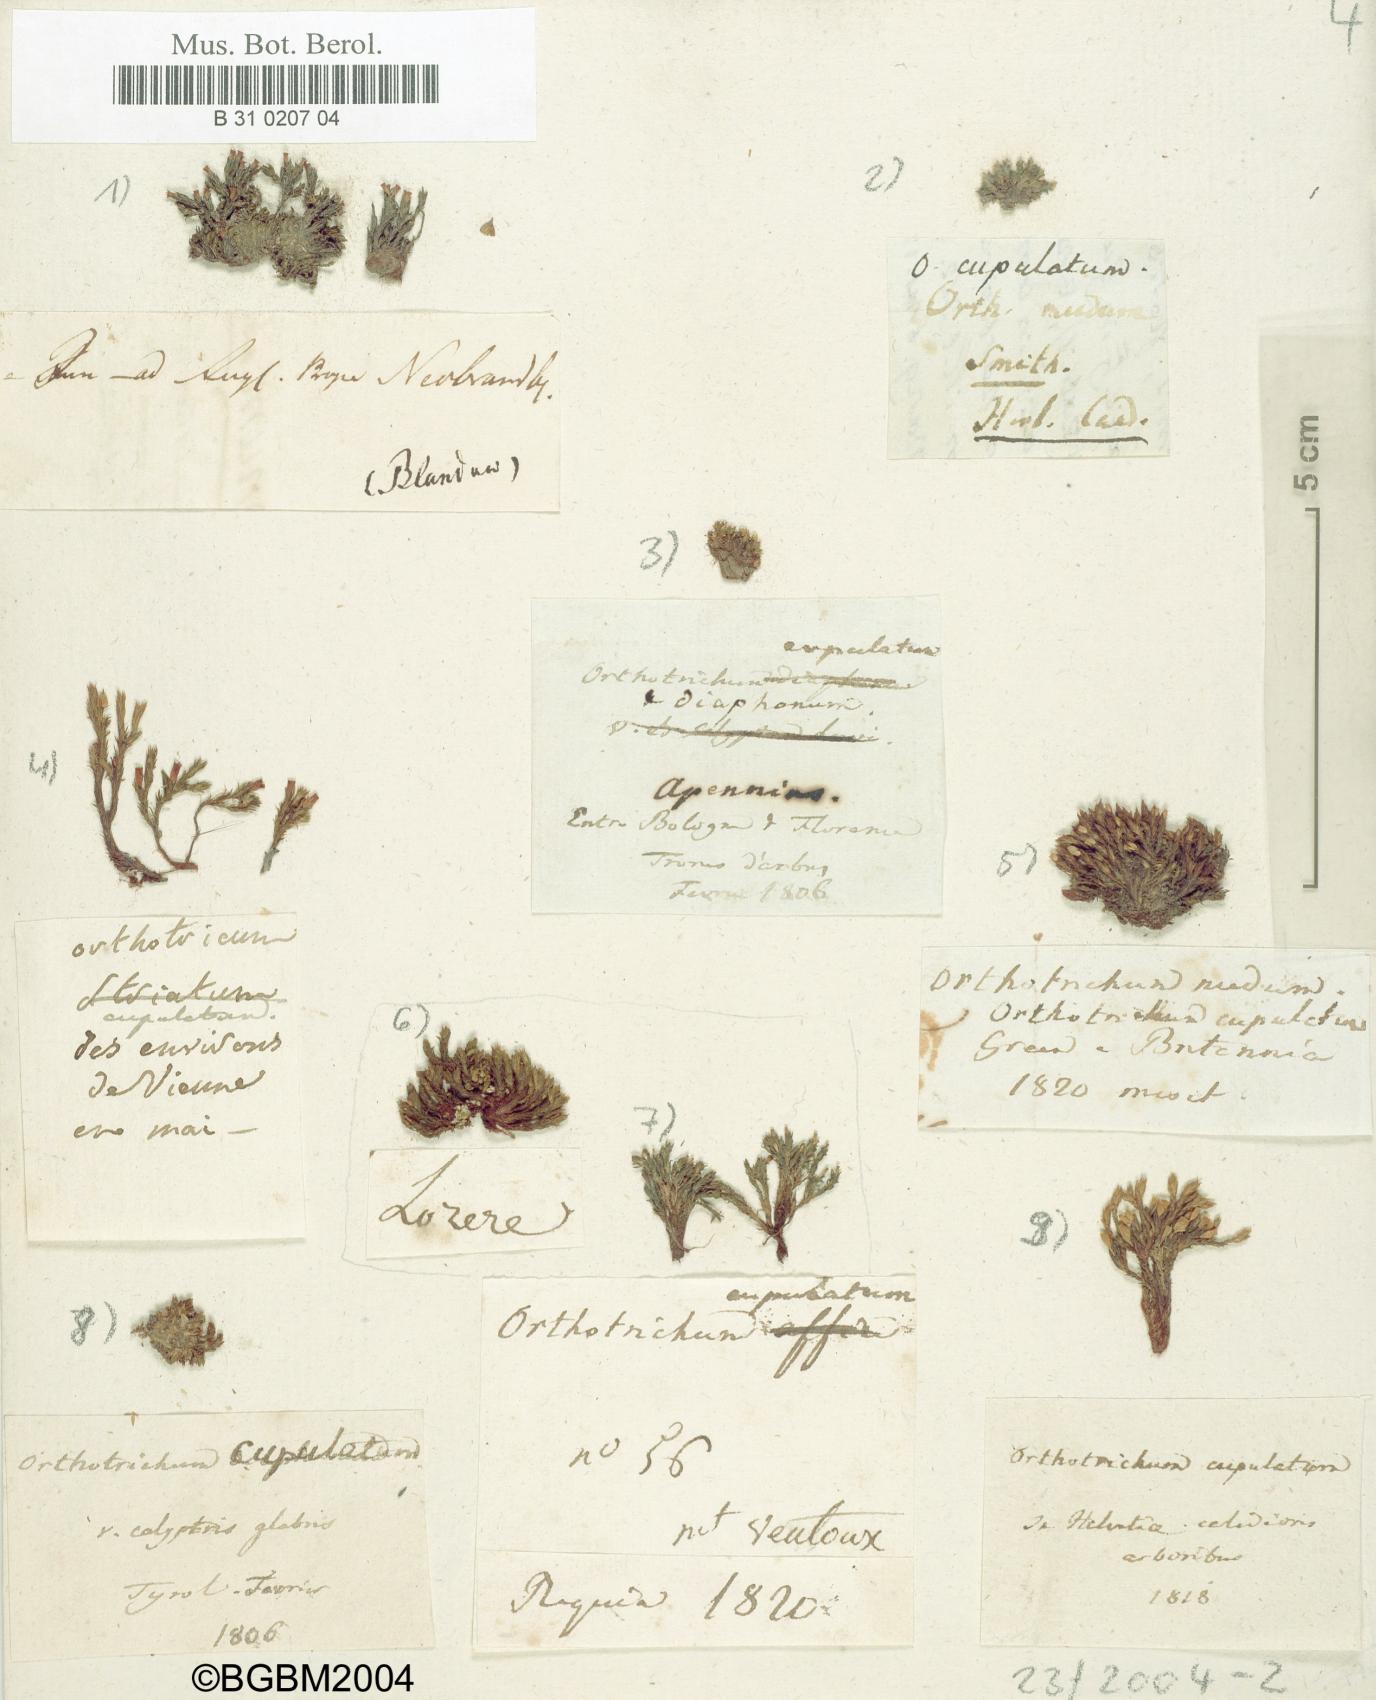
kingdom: Plantae
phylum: Bryophyta
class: Bryopsida
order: Orthotrichales
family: Orthotrichaceae
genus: Orthotrichum
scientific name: Orthotrichum cupulatum
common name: Hooded bristle-moss
